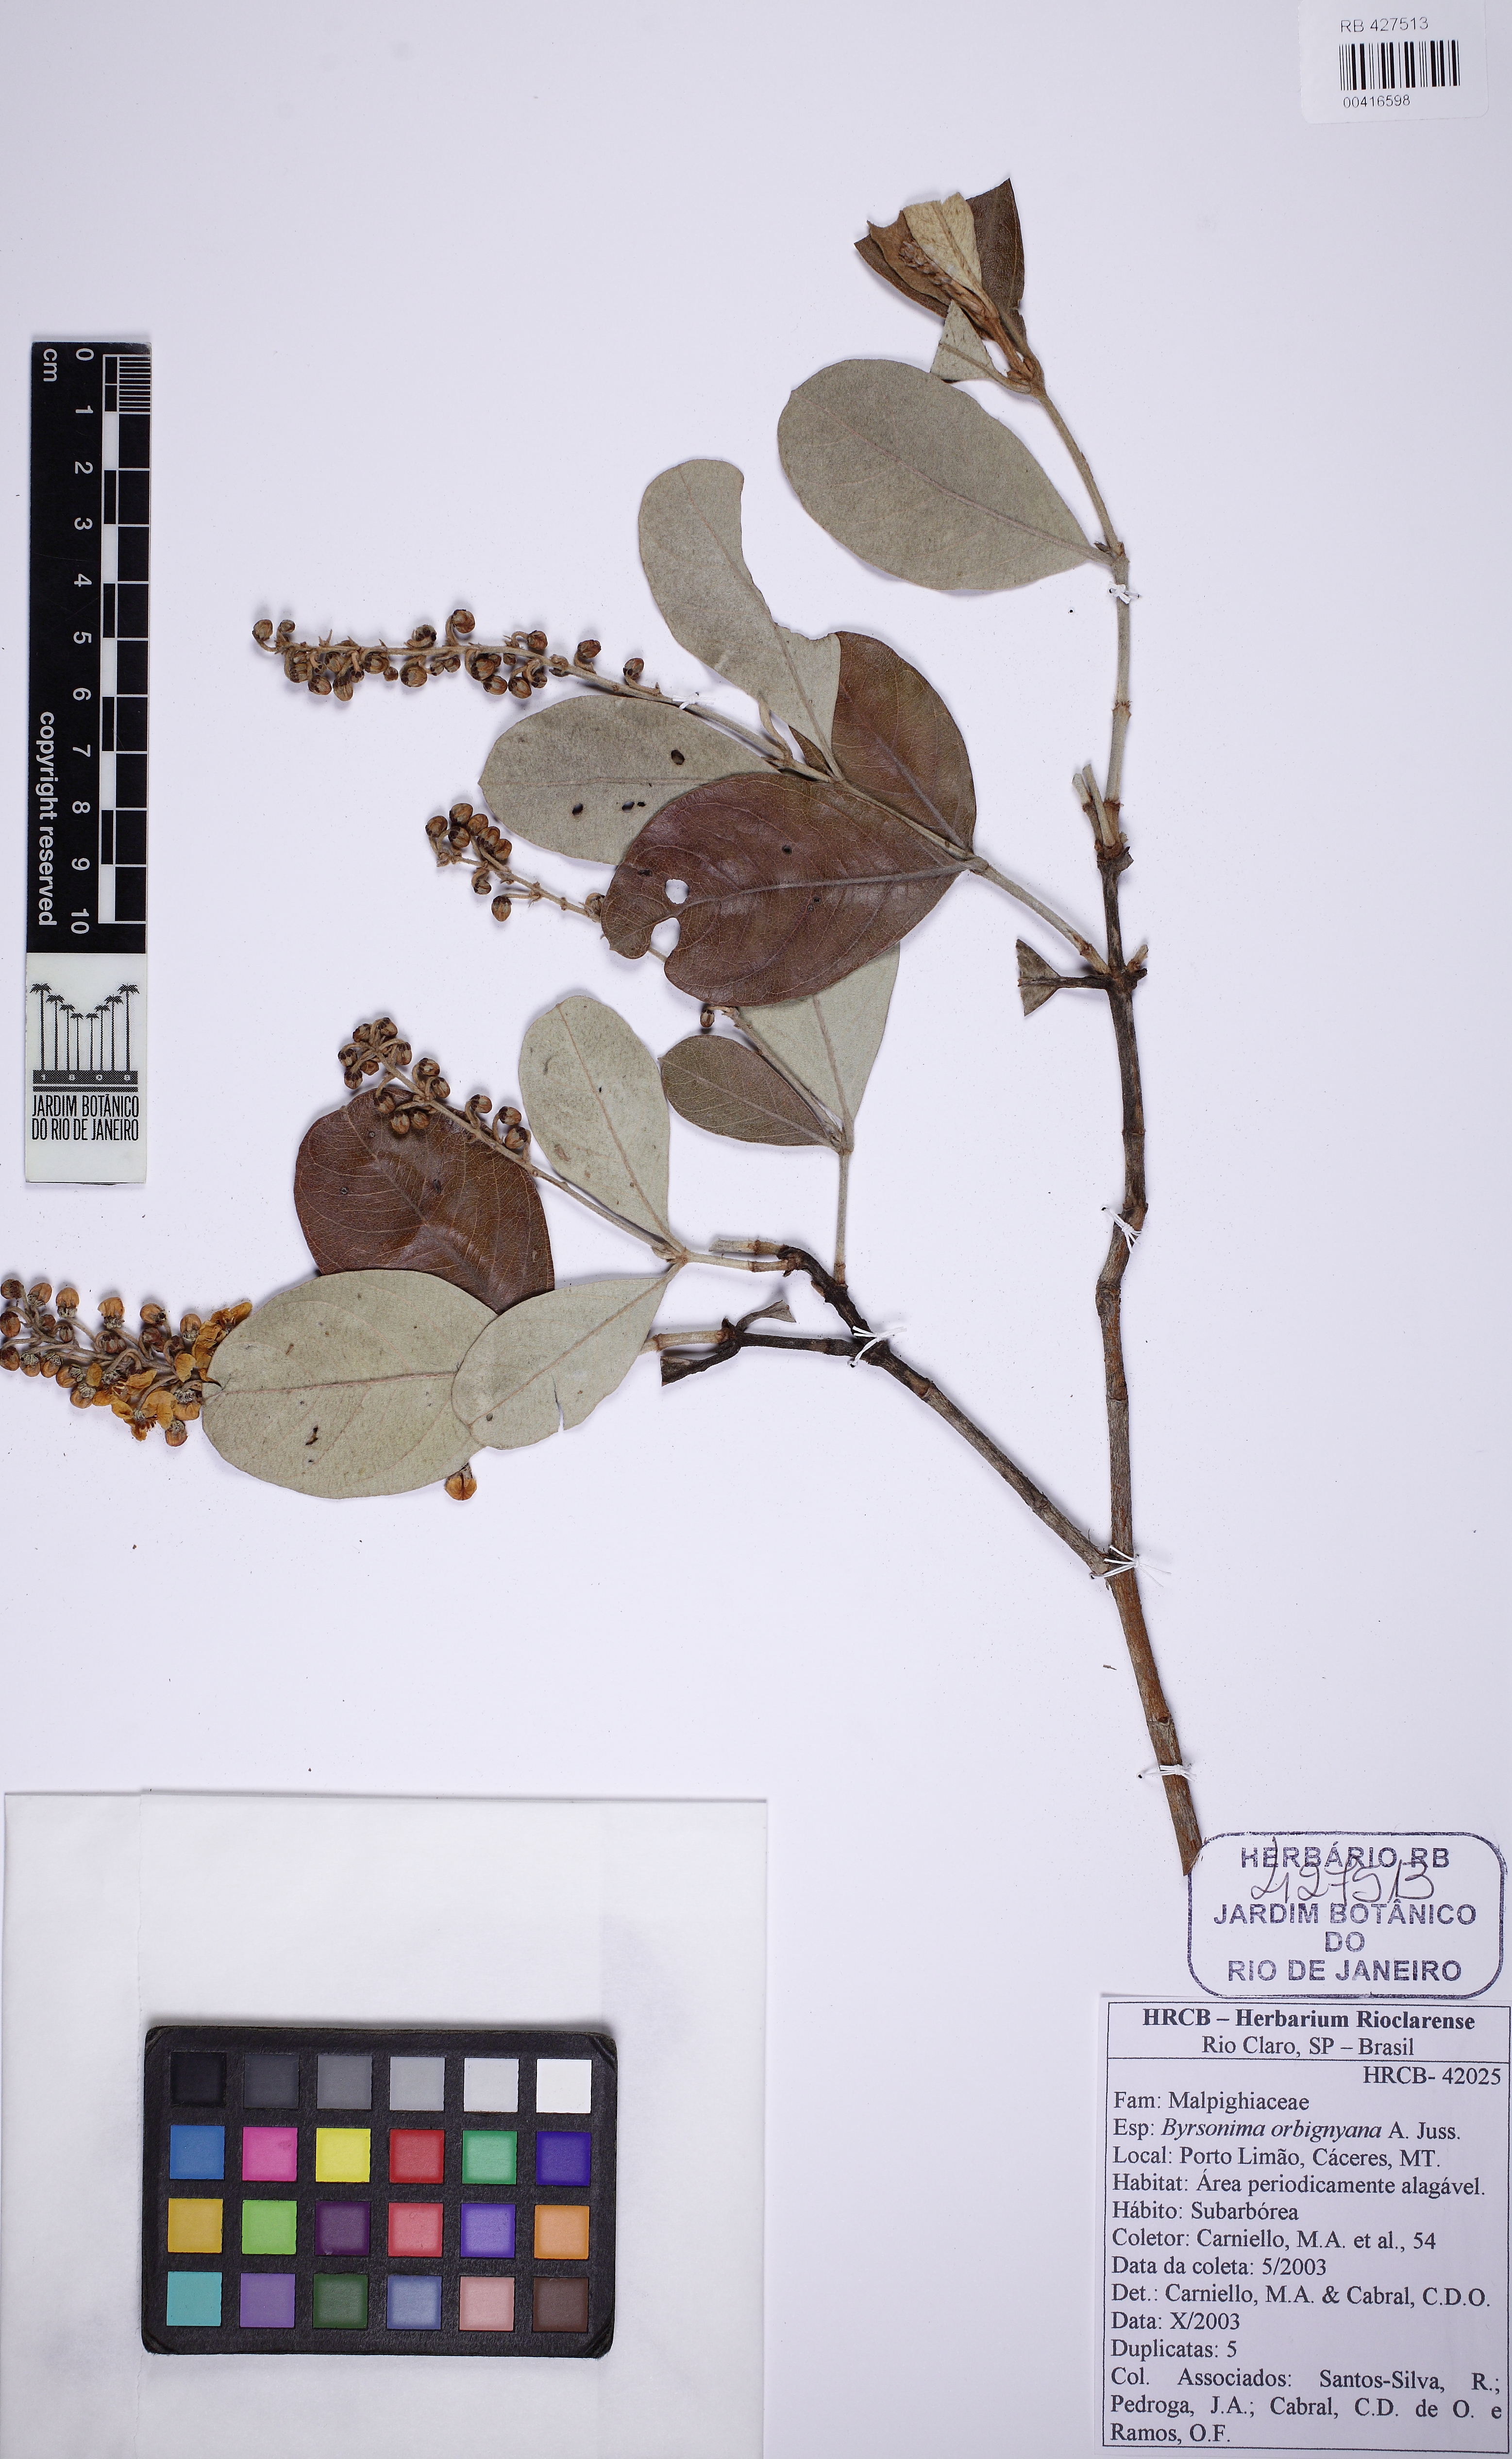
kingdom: Plantae
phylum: Tracheophyta
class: Magnoliopsida
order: Malpighiales
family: Malpighiaceae
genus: Byrsonima
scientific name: Byrsonima cydoniifolia
